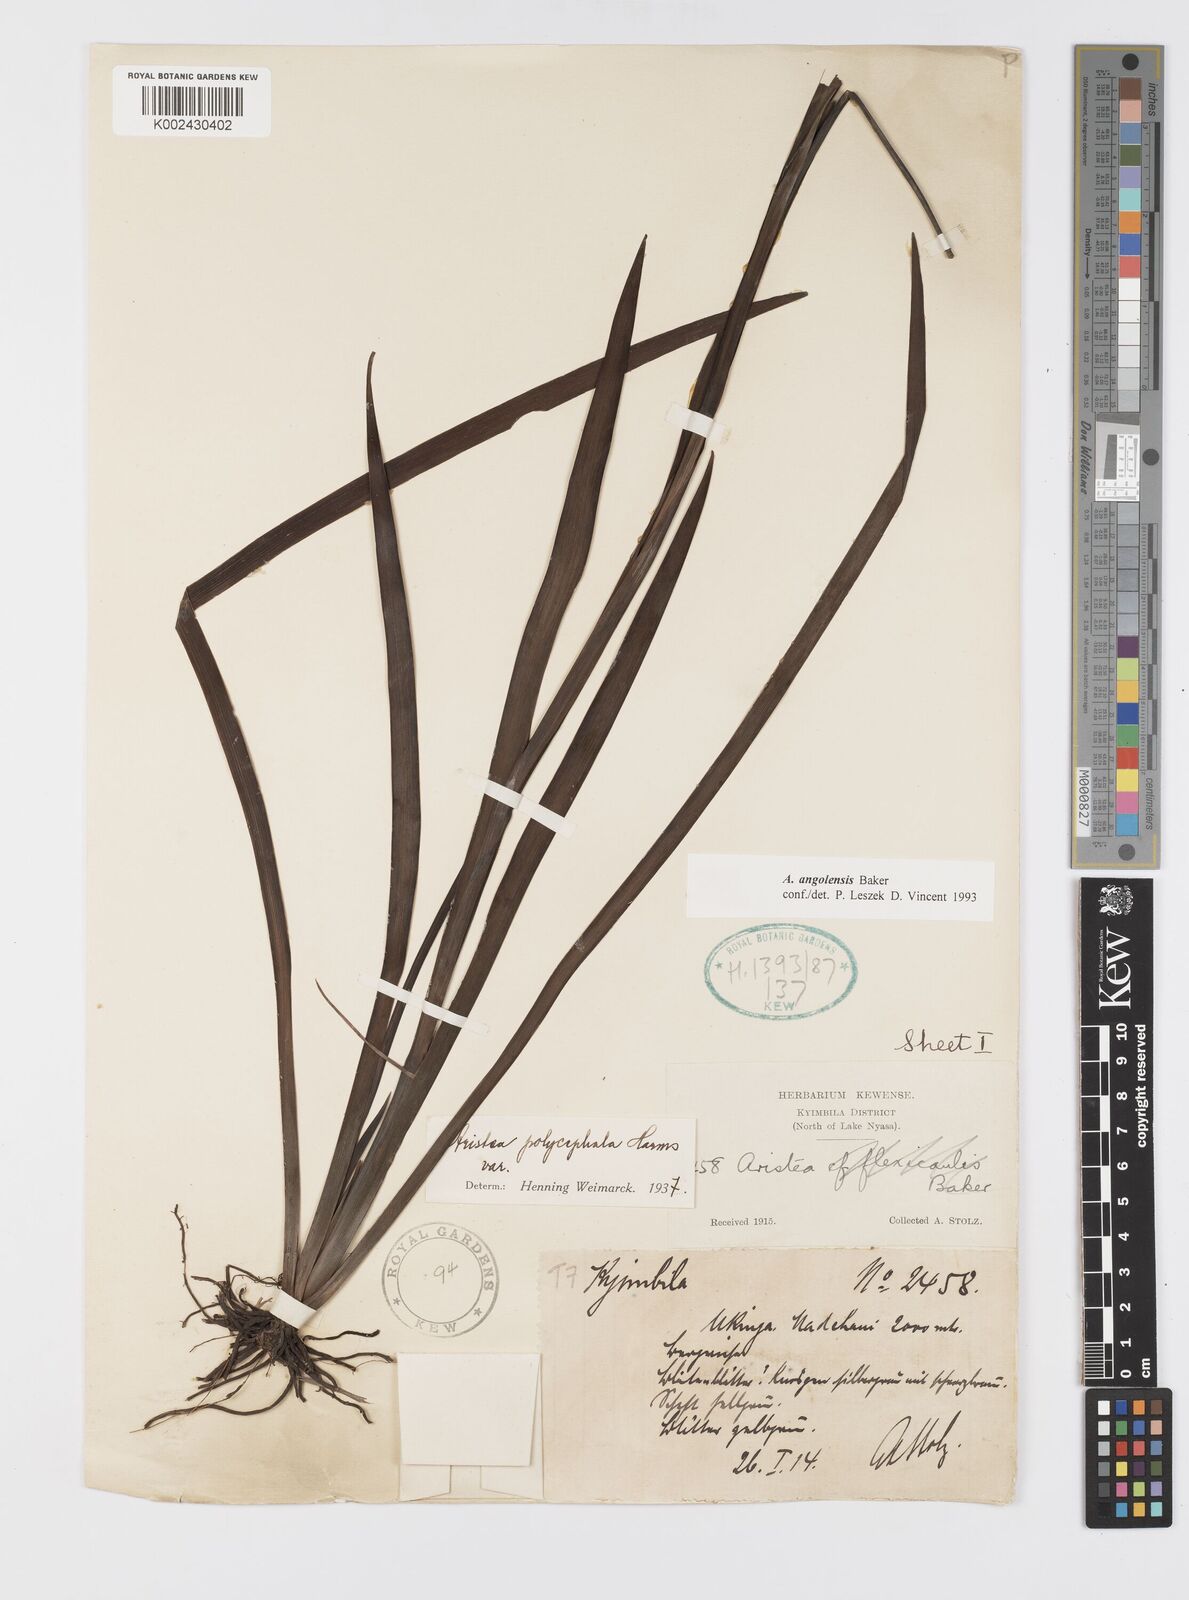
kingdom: Plantae
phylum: Tracheophyta
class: Liliopsida
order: Asparagales
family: Iridaceae
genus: Aristea
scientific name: Aristea angolensis
